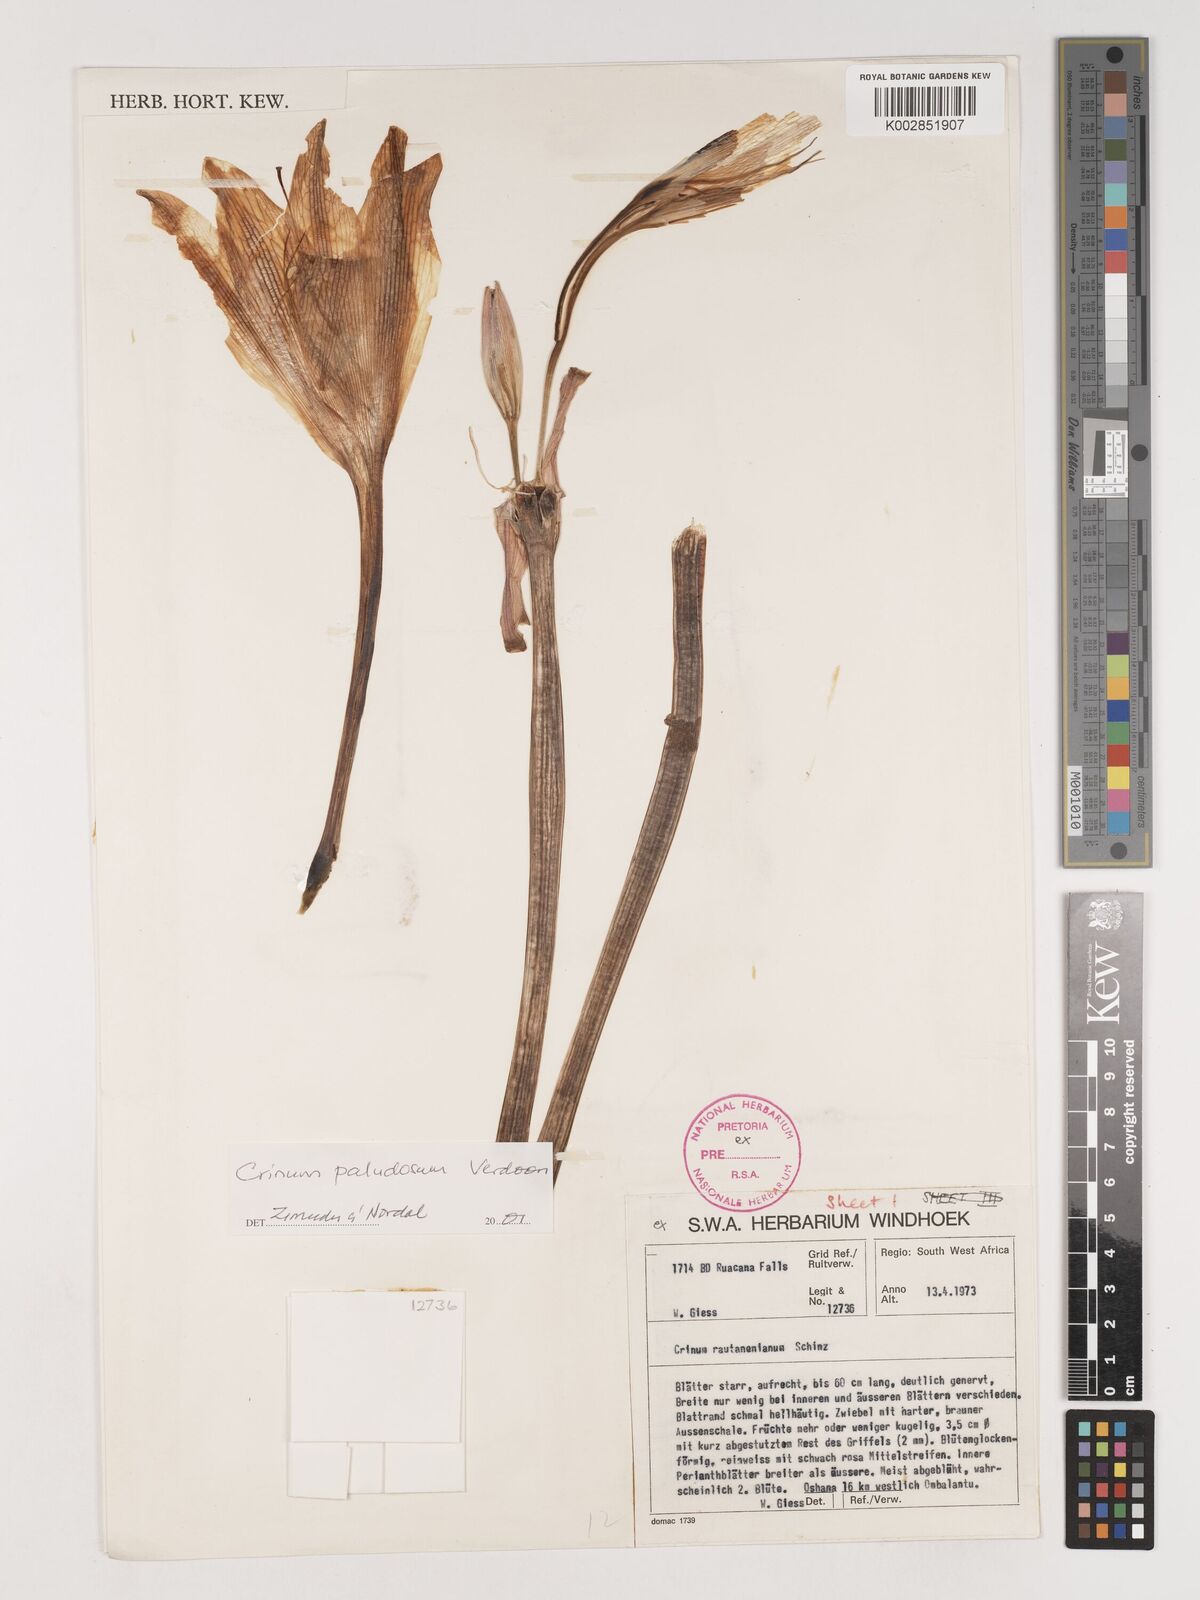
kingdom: Plantae
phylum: Tracheophyta
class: Liliopsida
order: Asparagales
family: Amaryllidaceae
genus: Crinum
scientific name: Crinum paludosum
